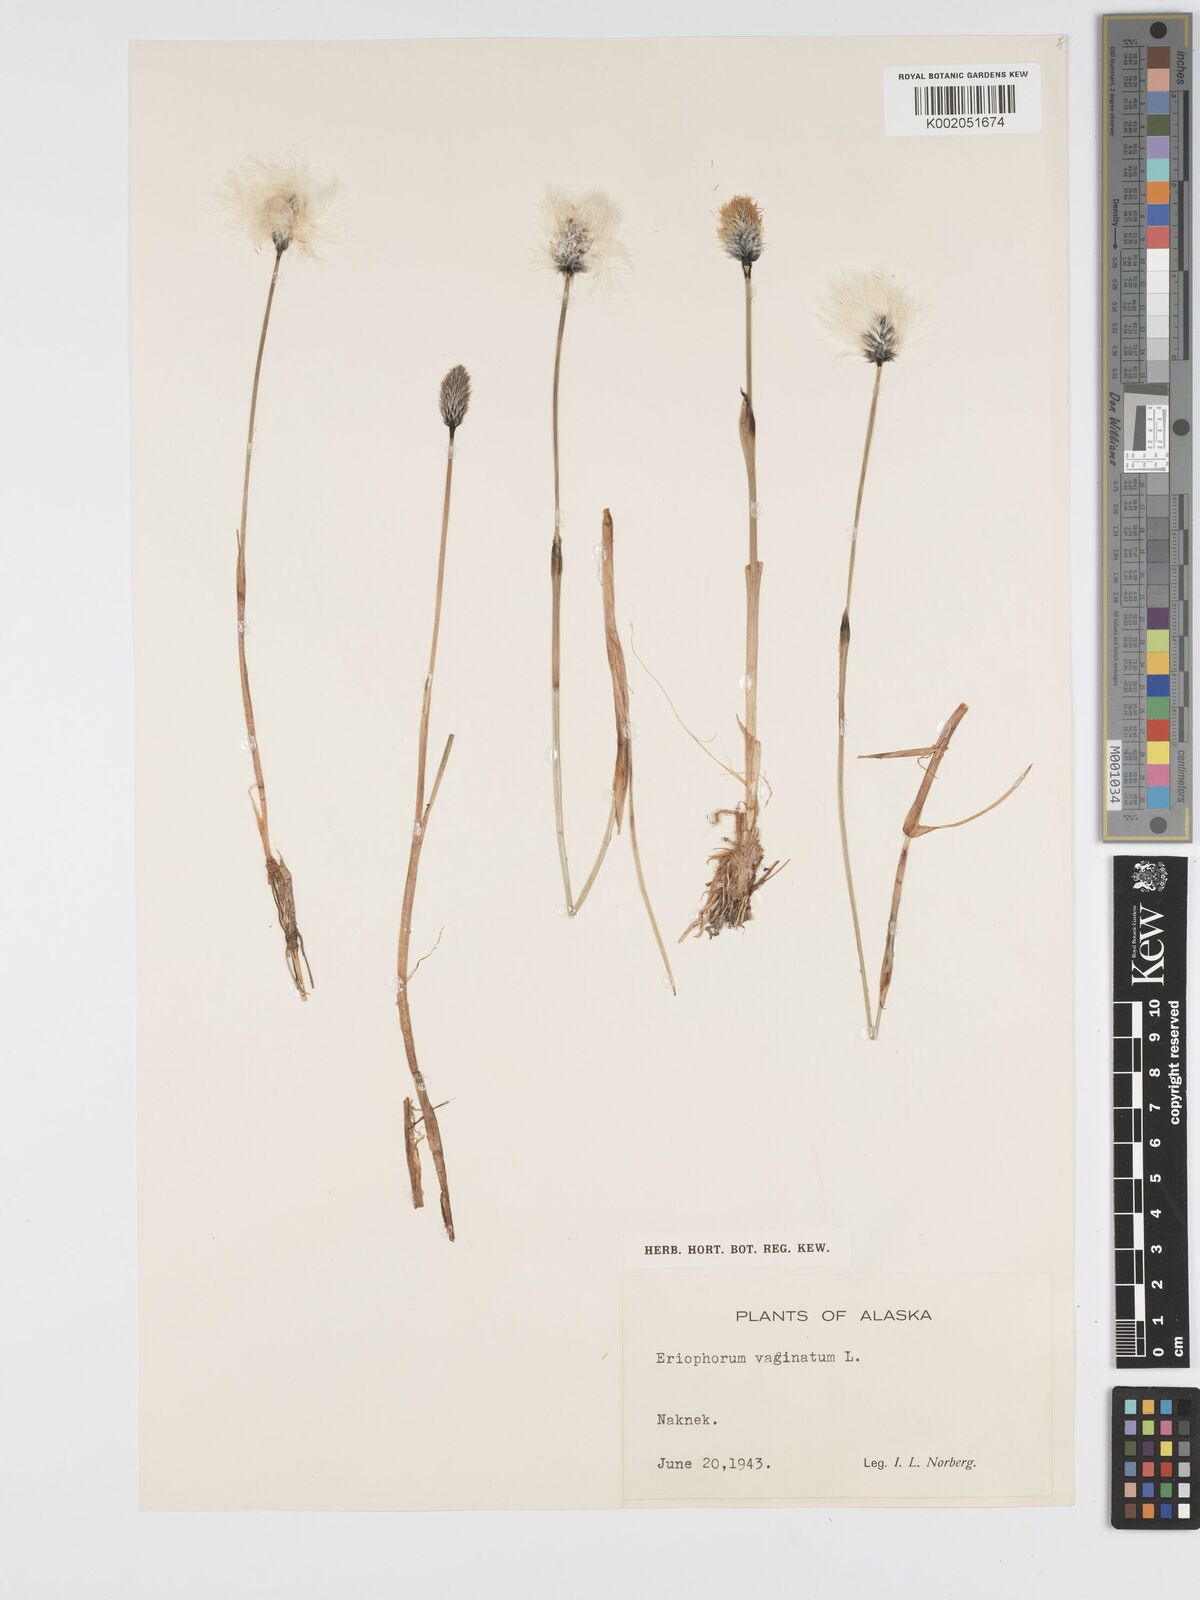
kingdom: Plantae
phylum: Tracheophyta
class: Liliopsida
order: Poales
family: Cyperaceae
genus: Eriophorum
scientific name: Eriophorum vaginatum
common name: Hare's-tail cottongrass
